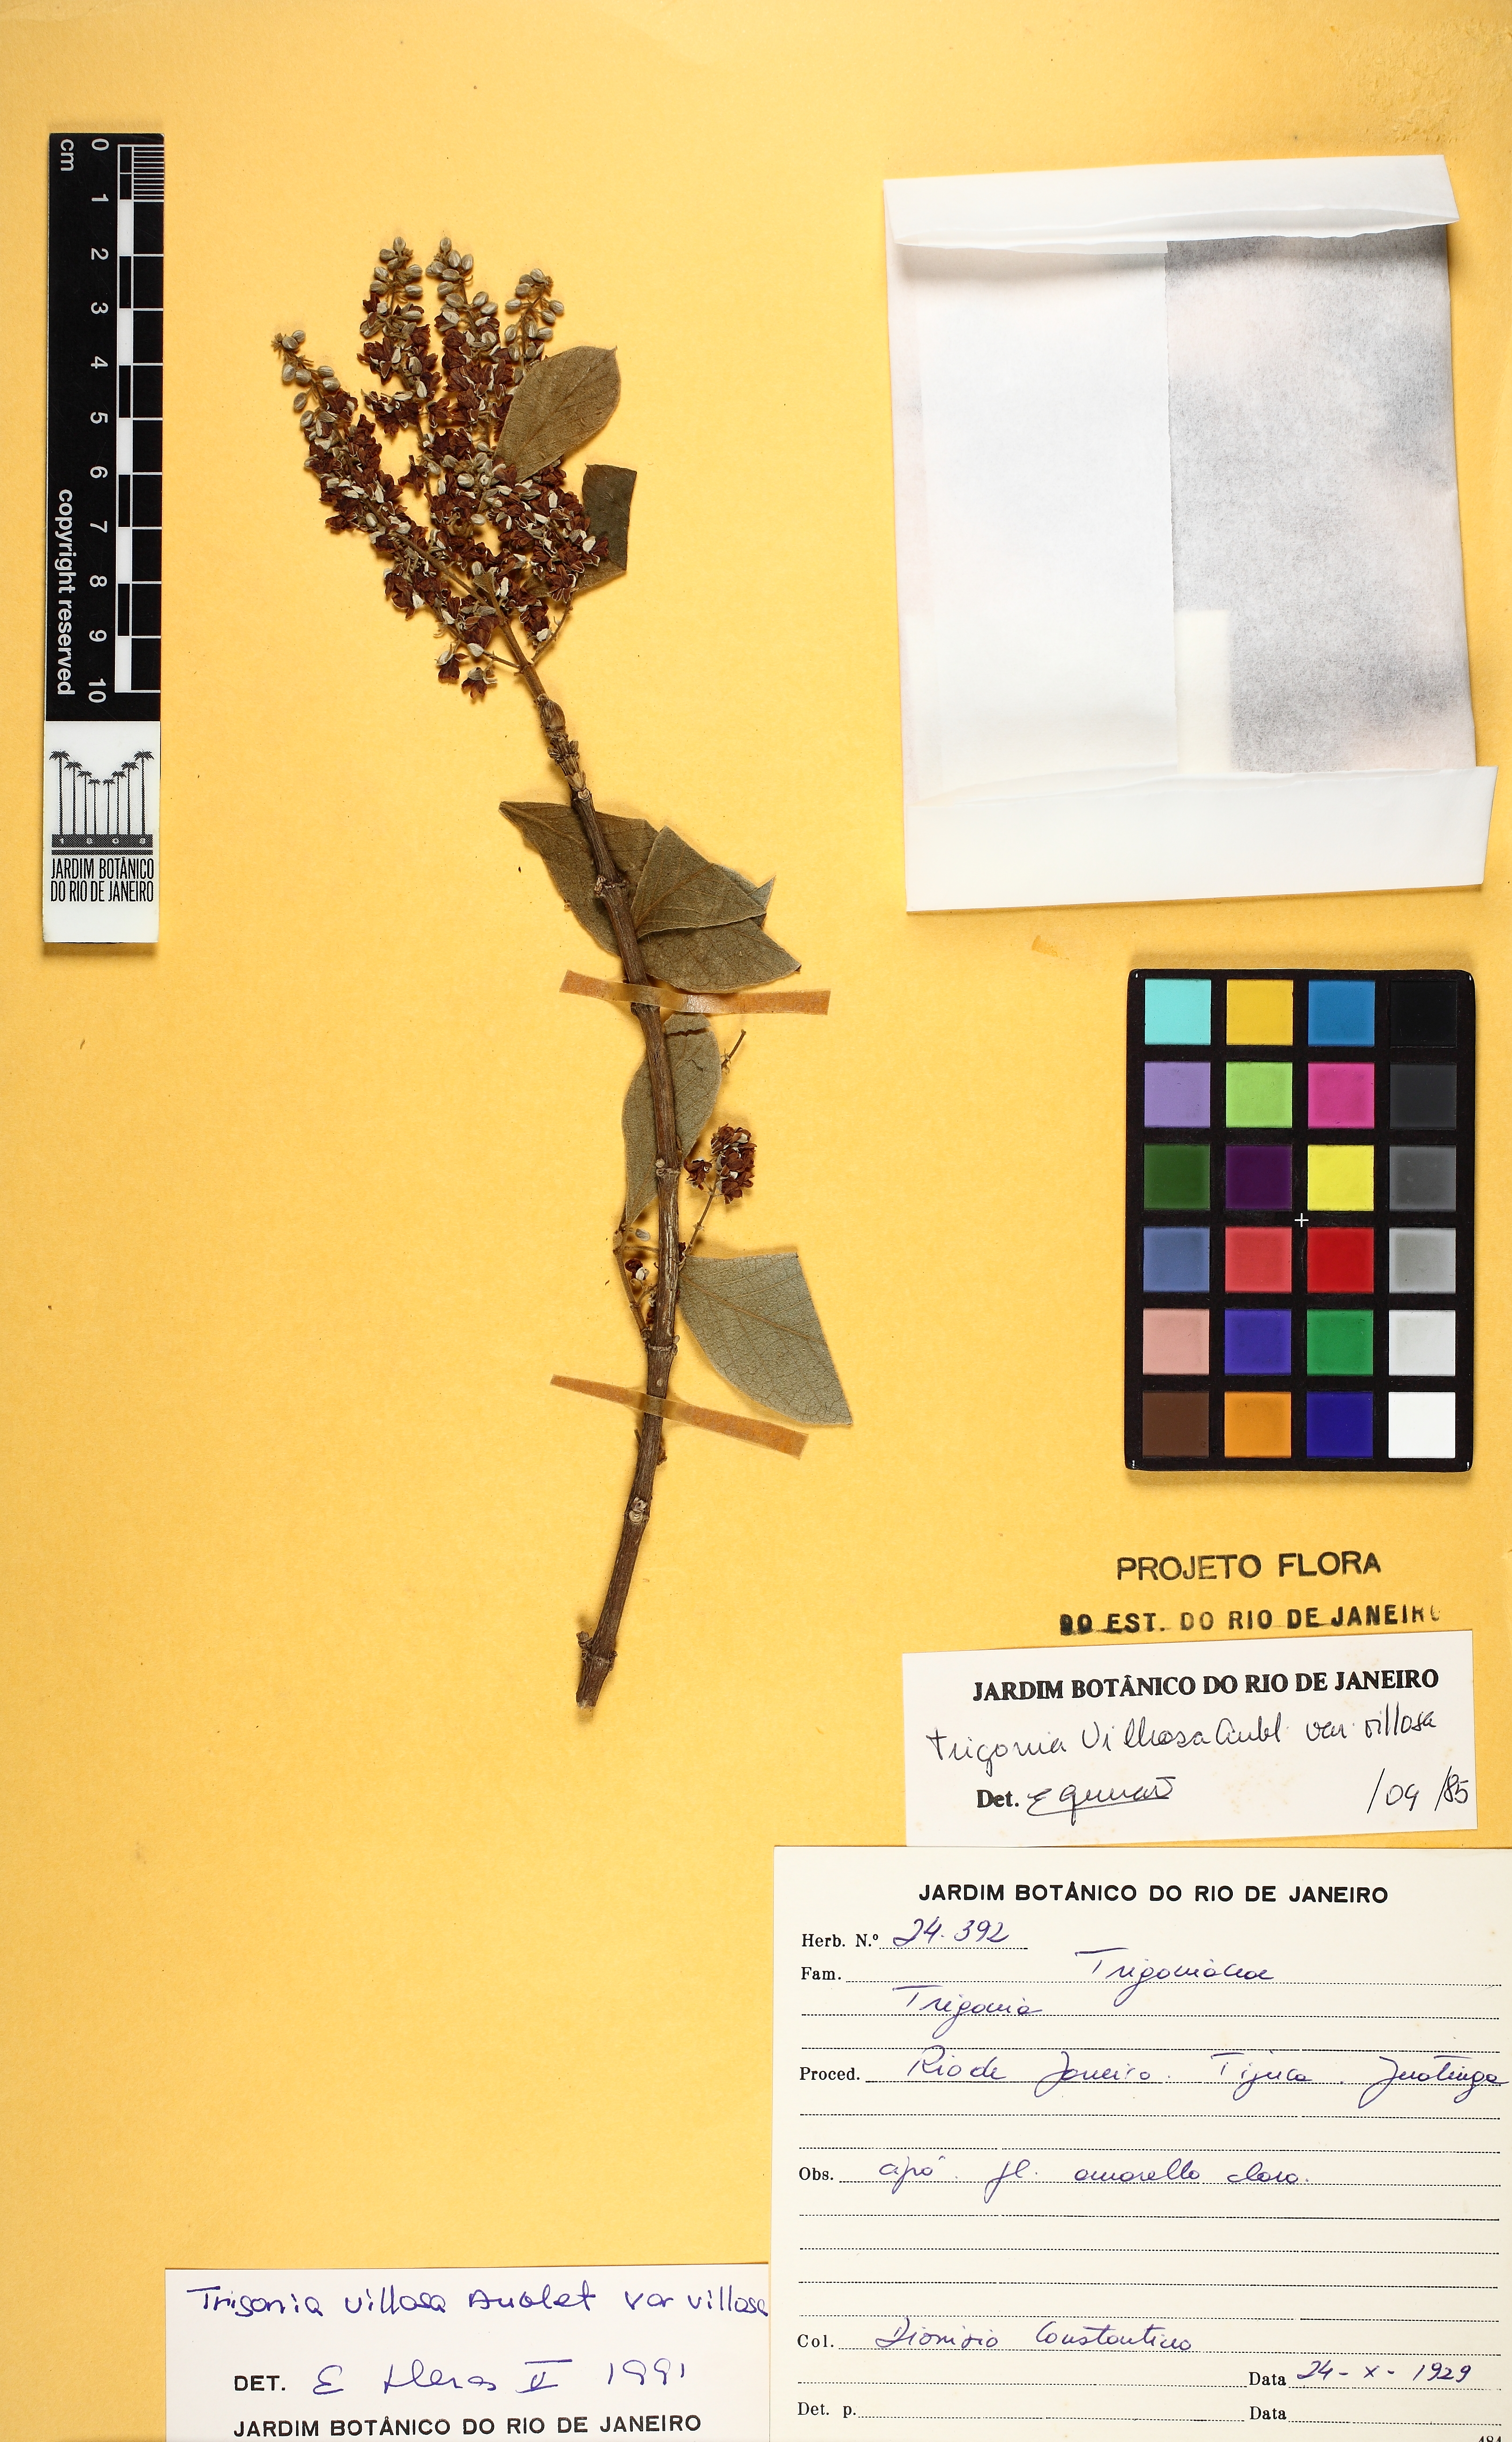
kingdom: Plantae
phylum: Tracheophyta
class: Magnoliopsida
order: Malpighiales
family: Trigoniaceae
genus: Trigonia
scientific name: Trigonia villosa
